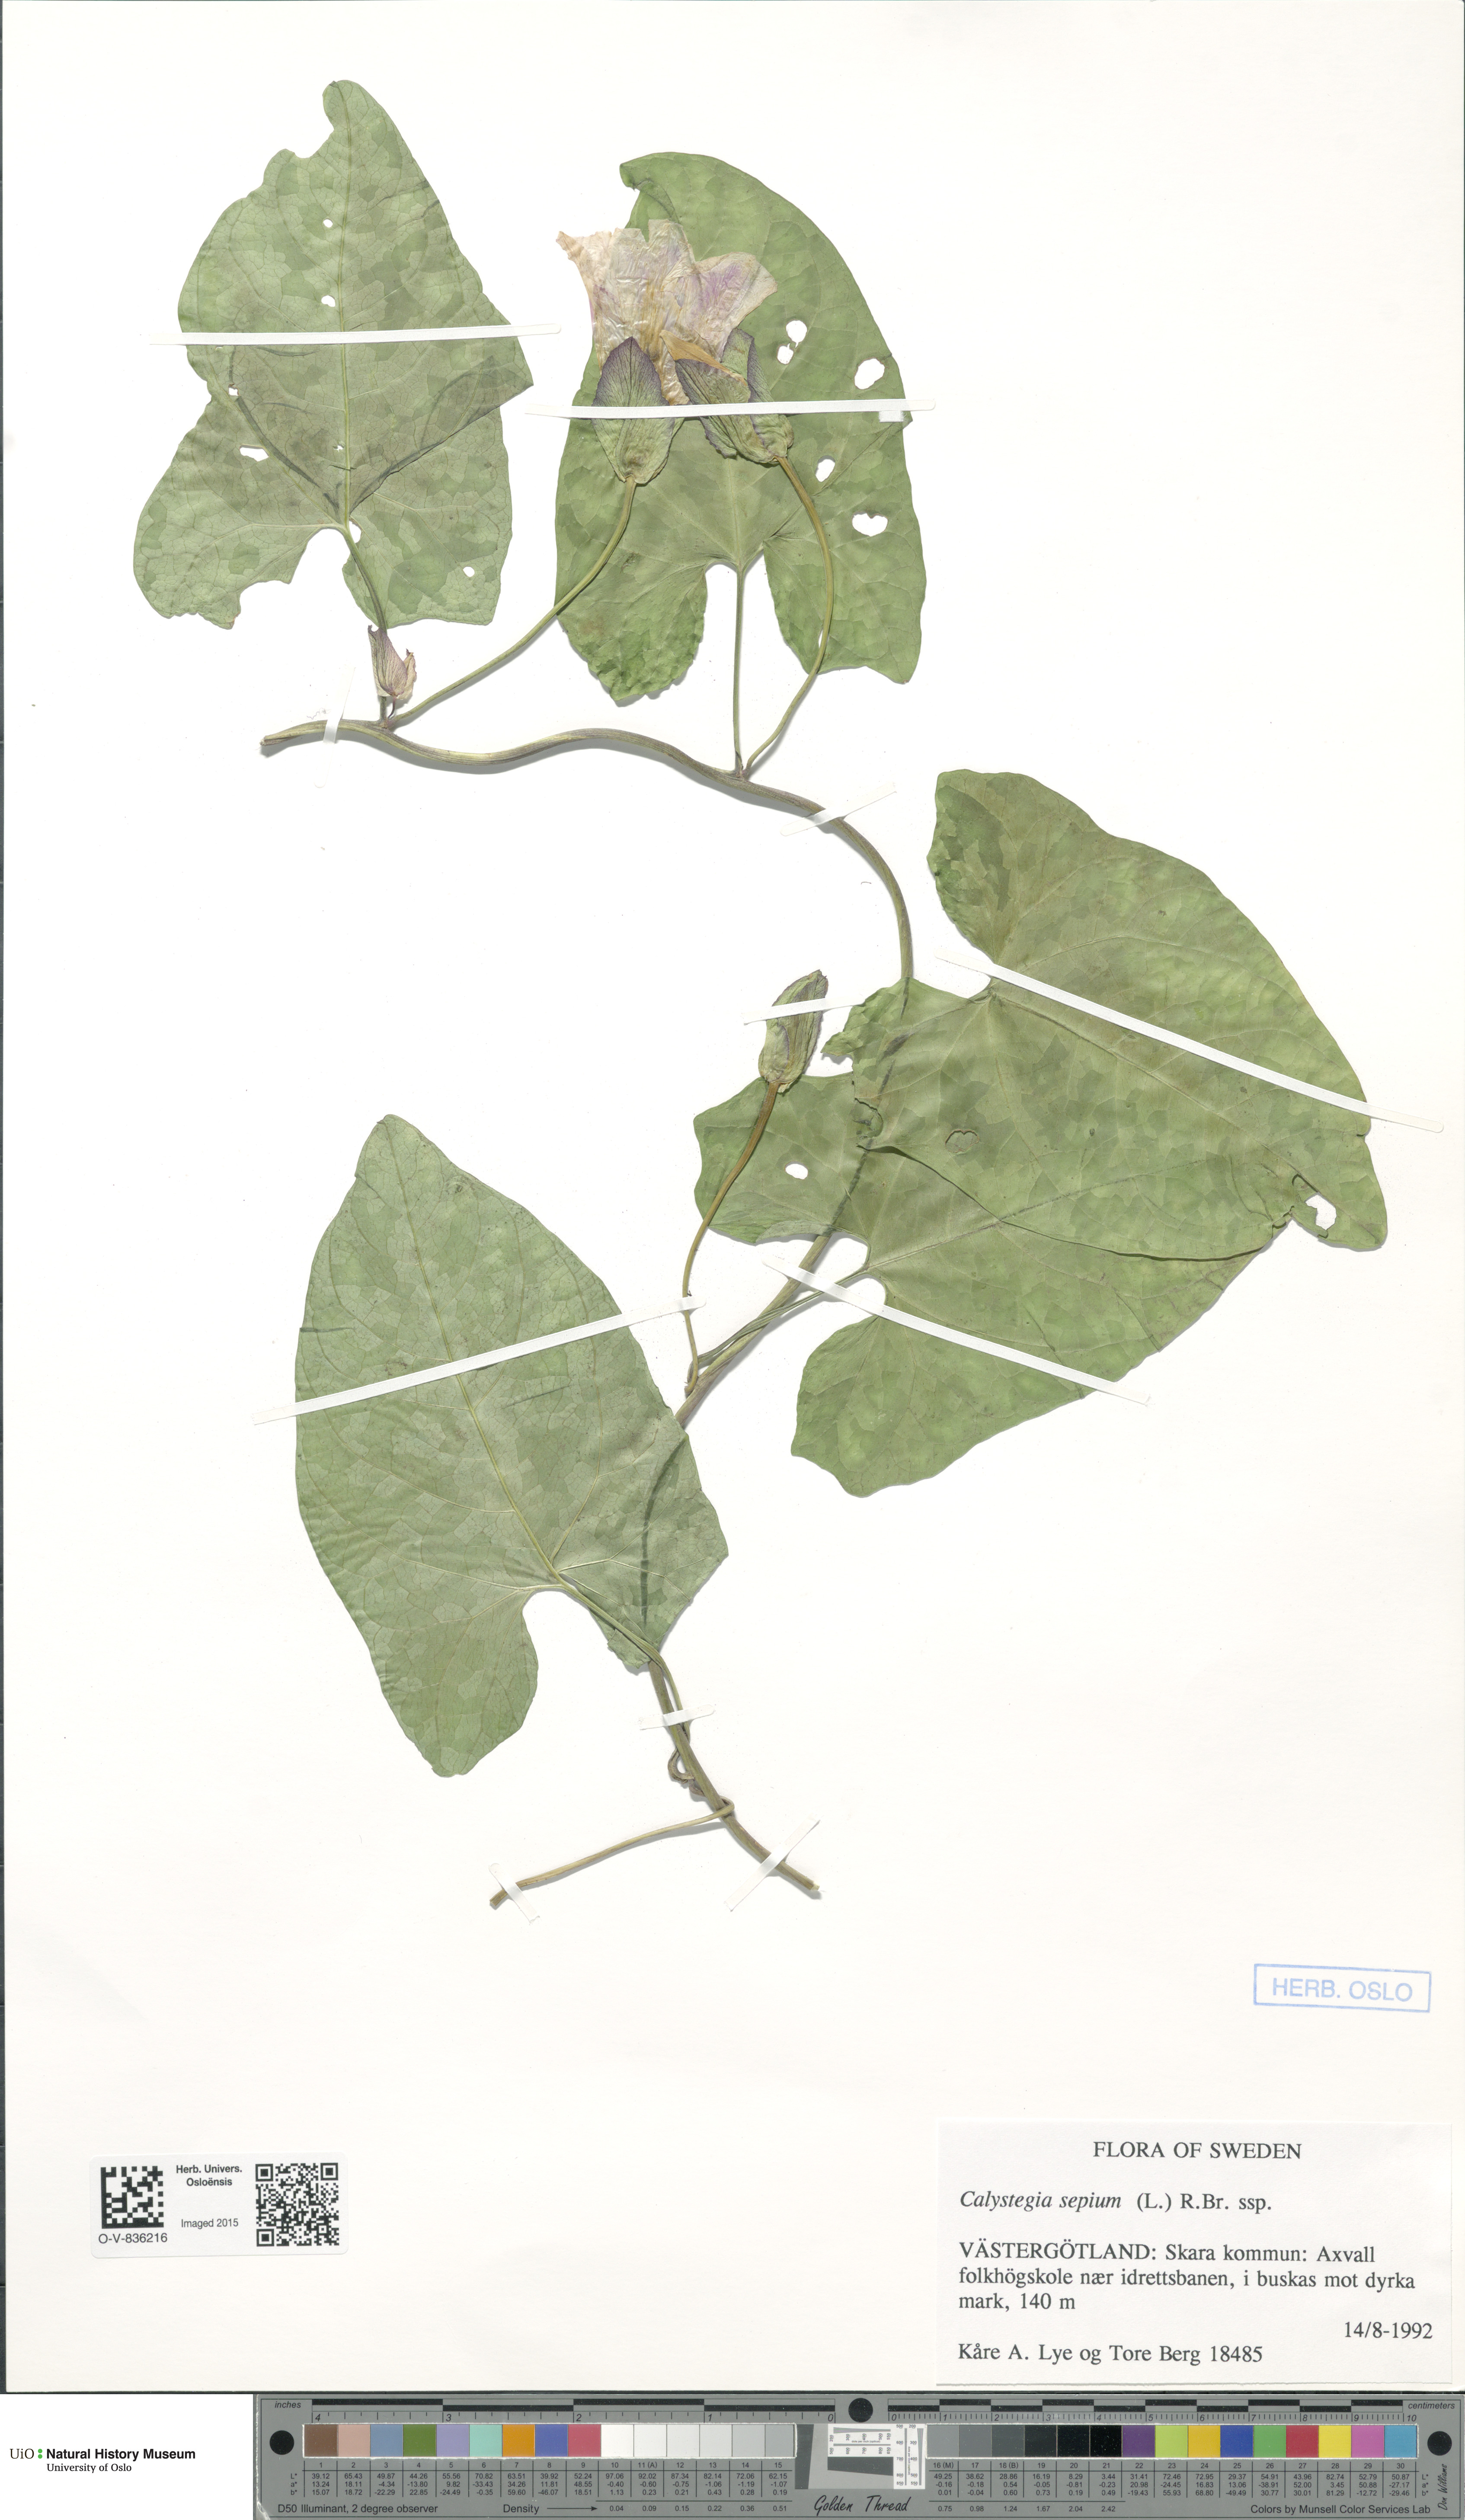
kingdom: Plantae
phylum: Tracheophyta
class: Magnoliopsida
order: Solanales
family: Convolvulaceae
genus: Calystegia
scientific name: Calystegia sepium
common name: Hedge bindweed
